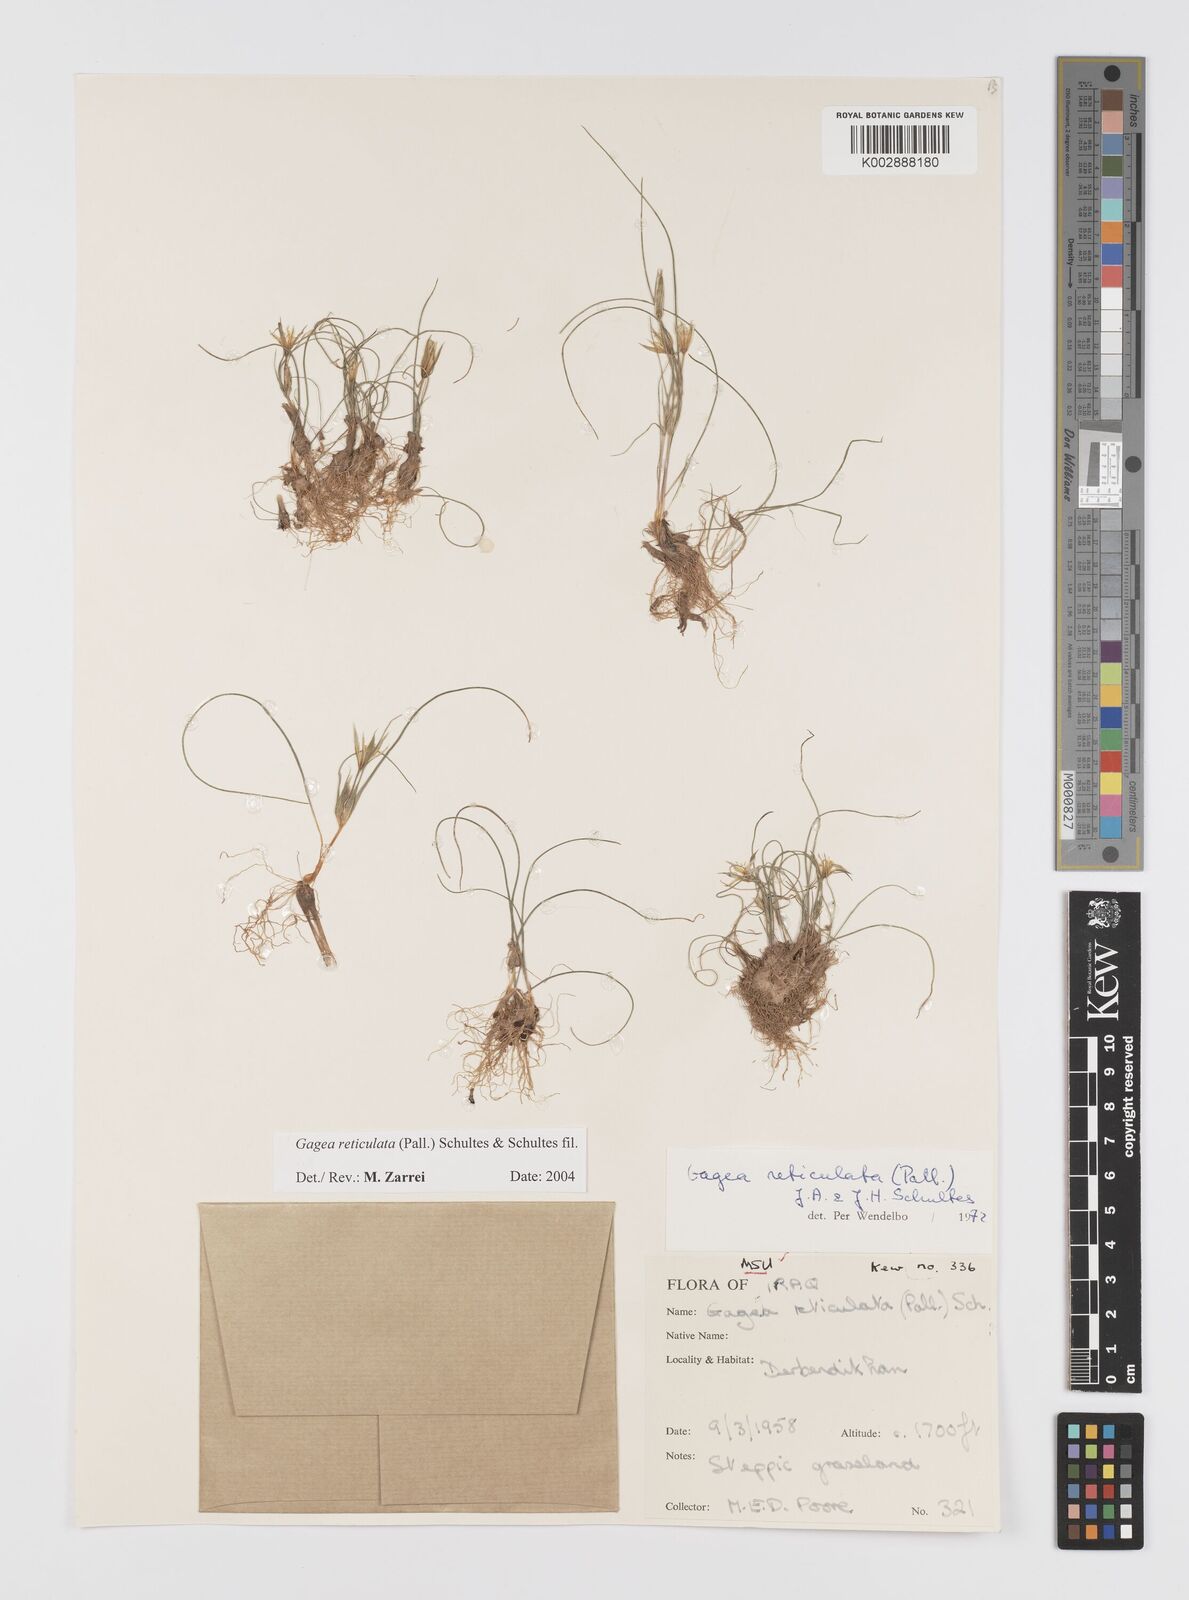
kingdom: Plantae
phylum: Tracheophyta
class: Liliopsida
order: Liliales
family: Liliaceae
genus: Gagea
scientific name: Gagea reticulata
